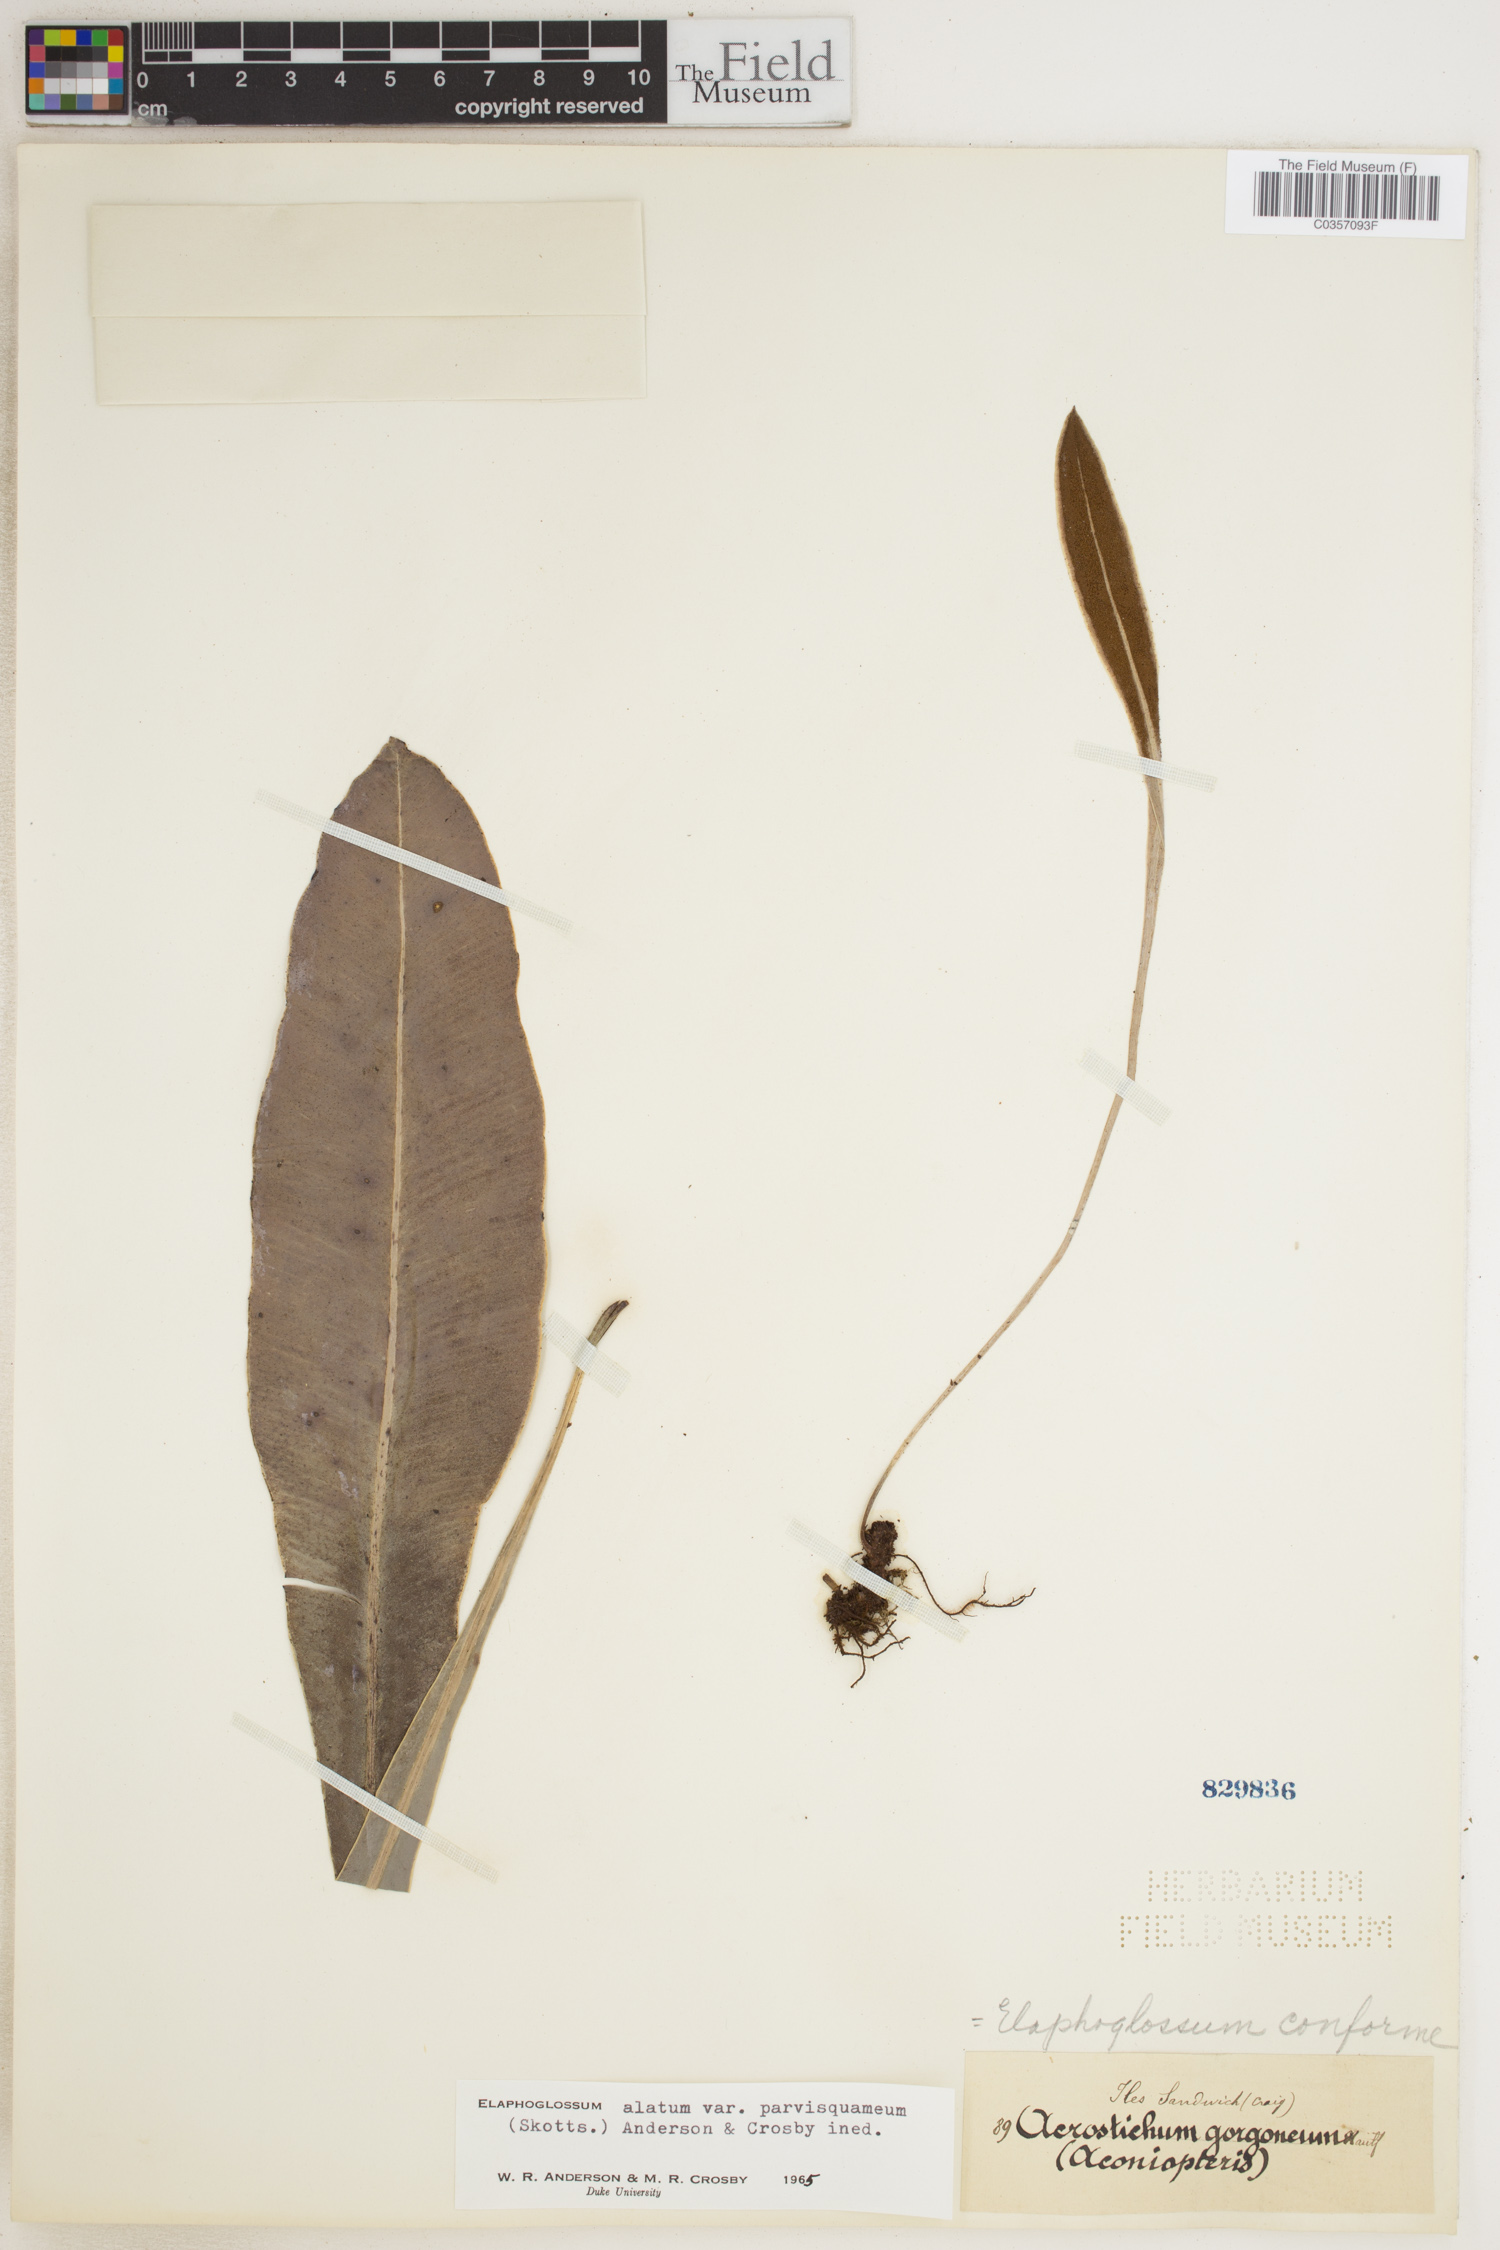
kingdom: Plantae
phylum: Tracheophyta
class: Polypodiopsida
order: Polypodiales
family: Dryopteridaceae
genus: Elaphoglossum
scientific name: Elaphoglossum conforme
